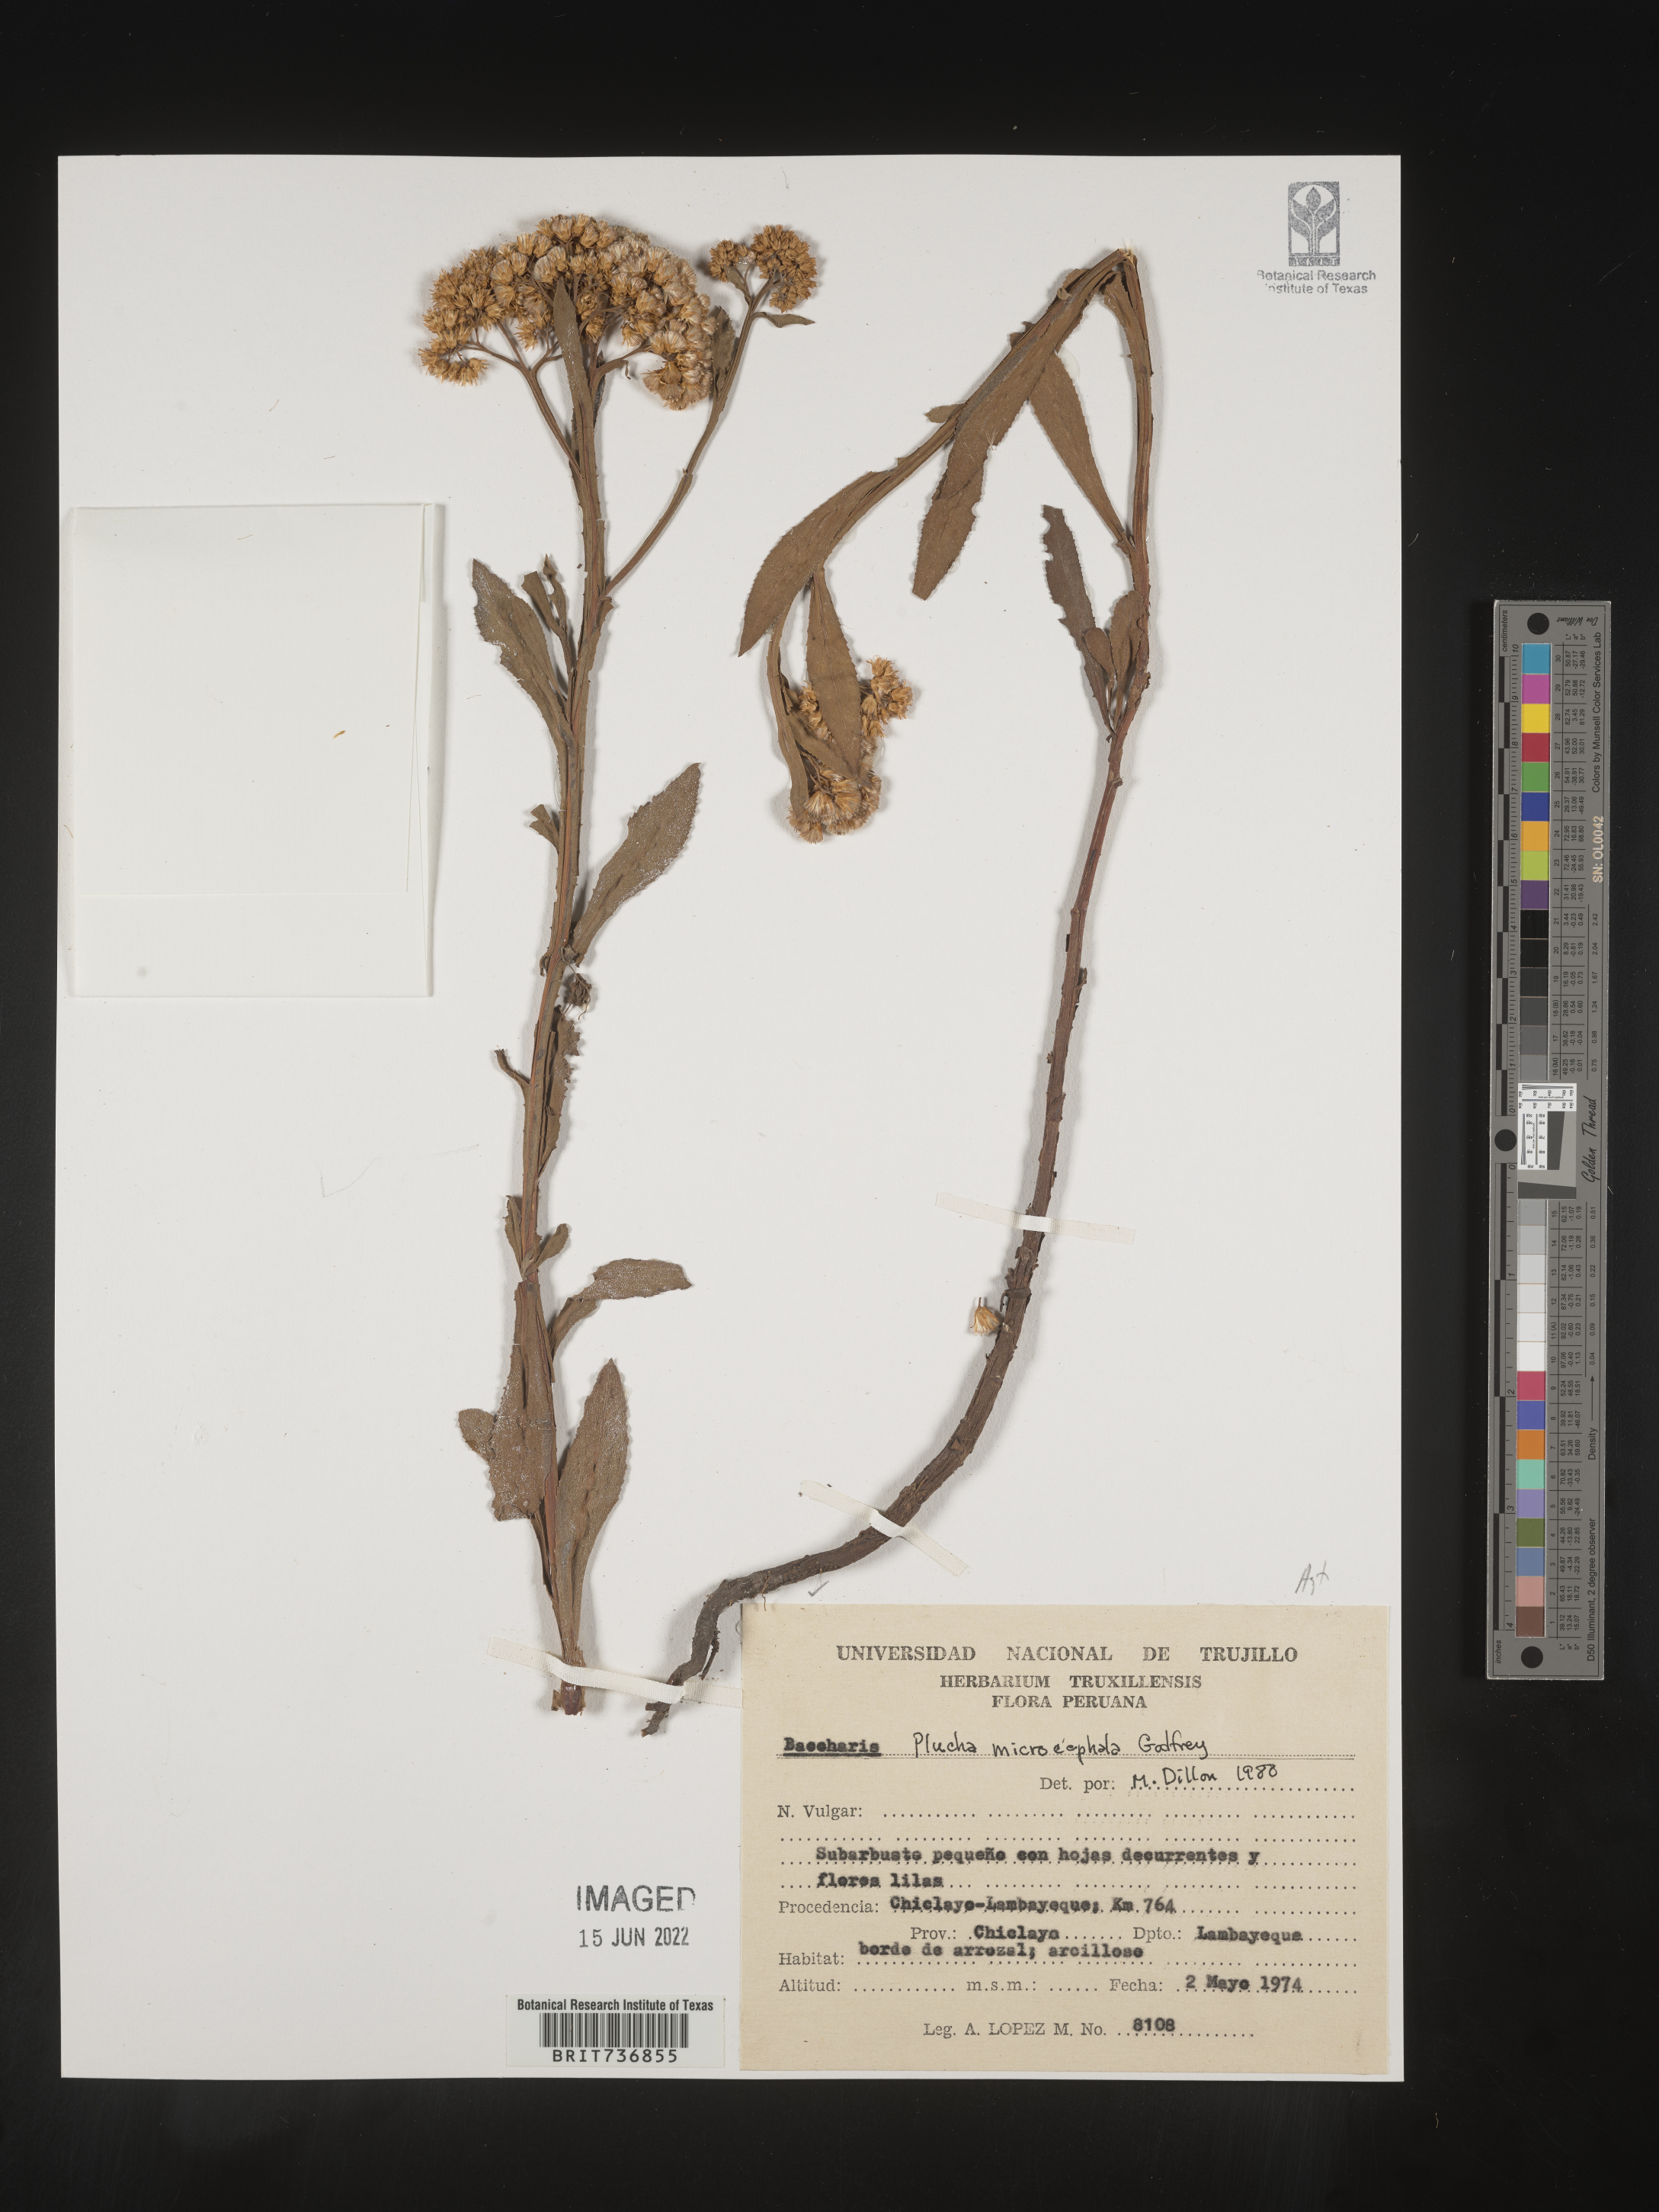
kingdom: Plantae
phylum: Tracheophyta
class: Magnoliopsida
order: Asterales
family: Asteraceae
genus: Pluchea
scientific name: Pluchea
